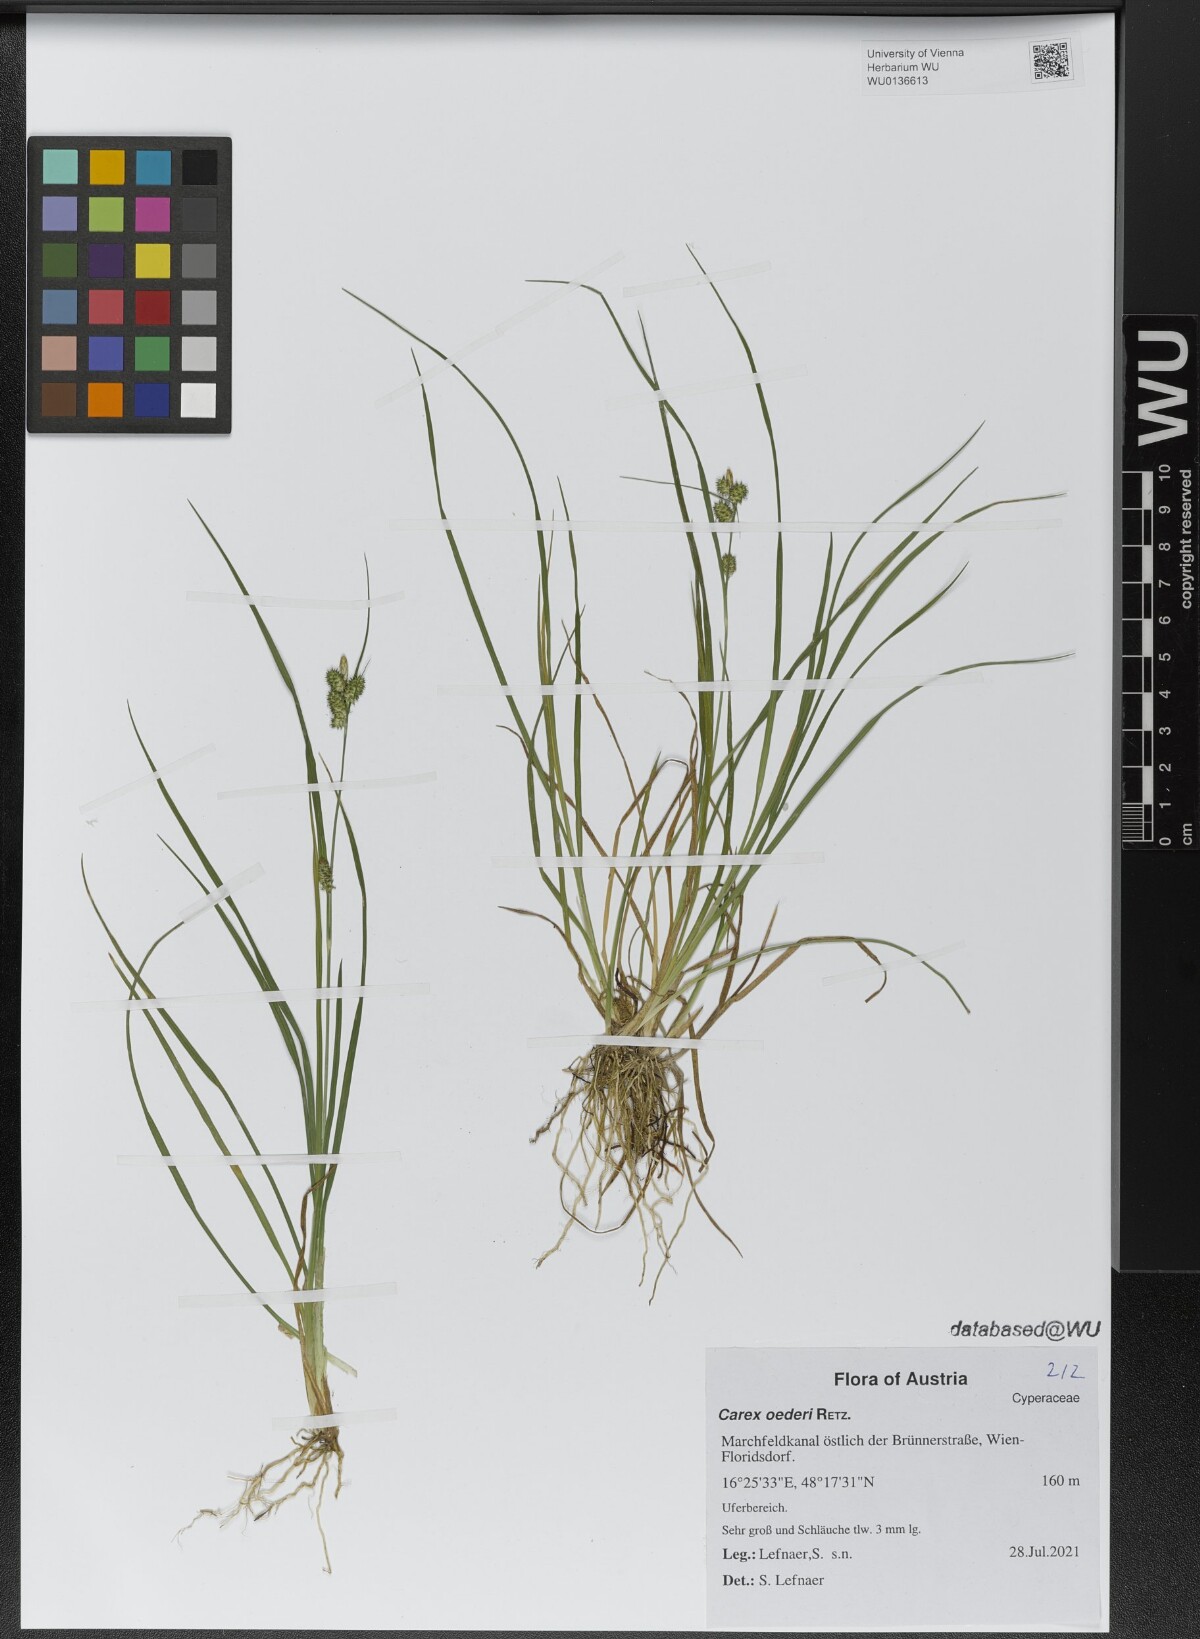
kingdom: Plantae
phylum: Tracheophyta
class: Liliopsida
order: Poales
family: Cyperaceae
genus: Carex
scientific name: Carex oederi
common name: Common & small-fruited yellow-sedge
